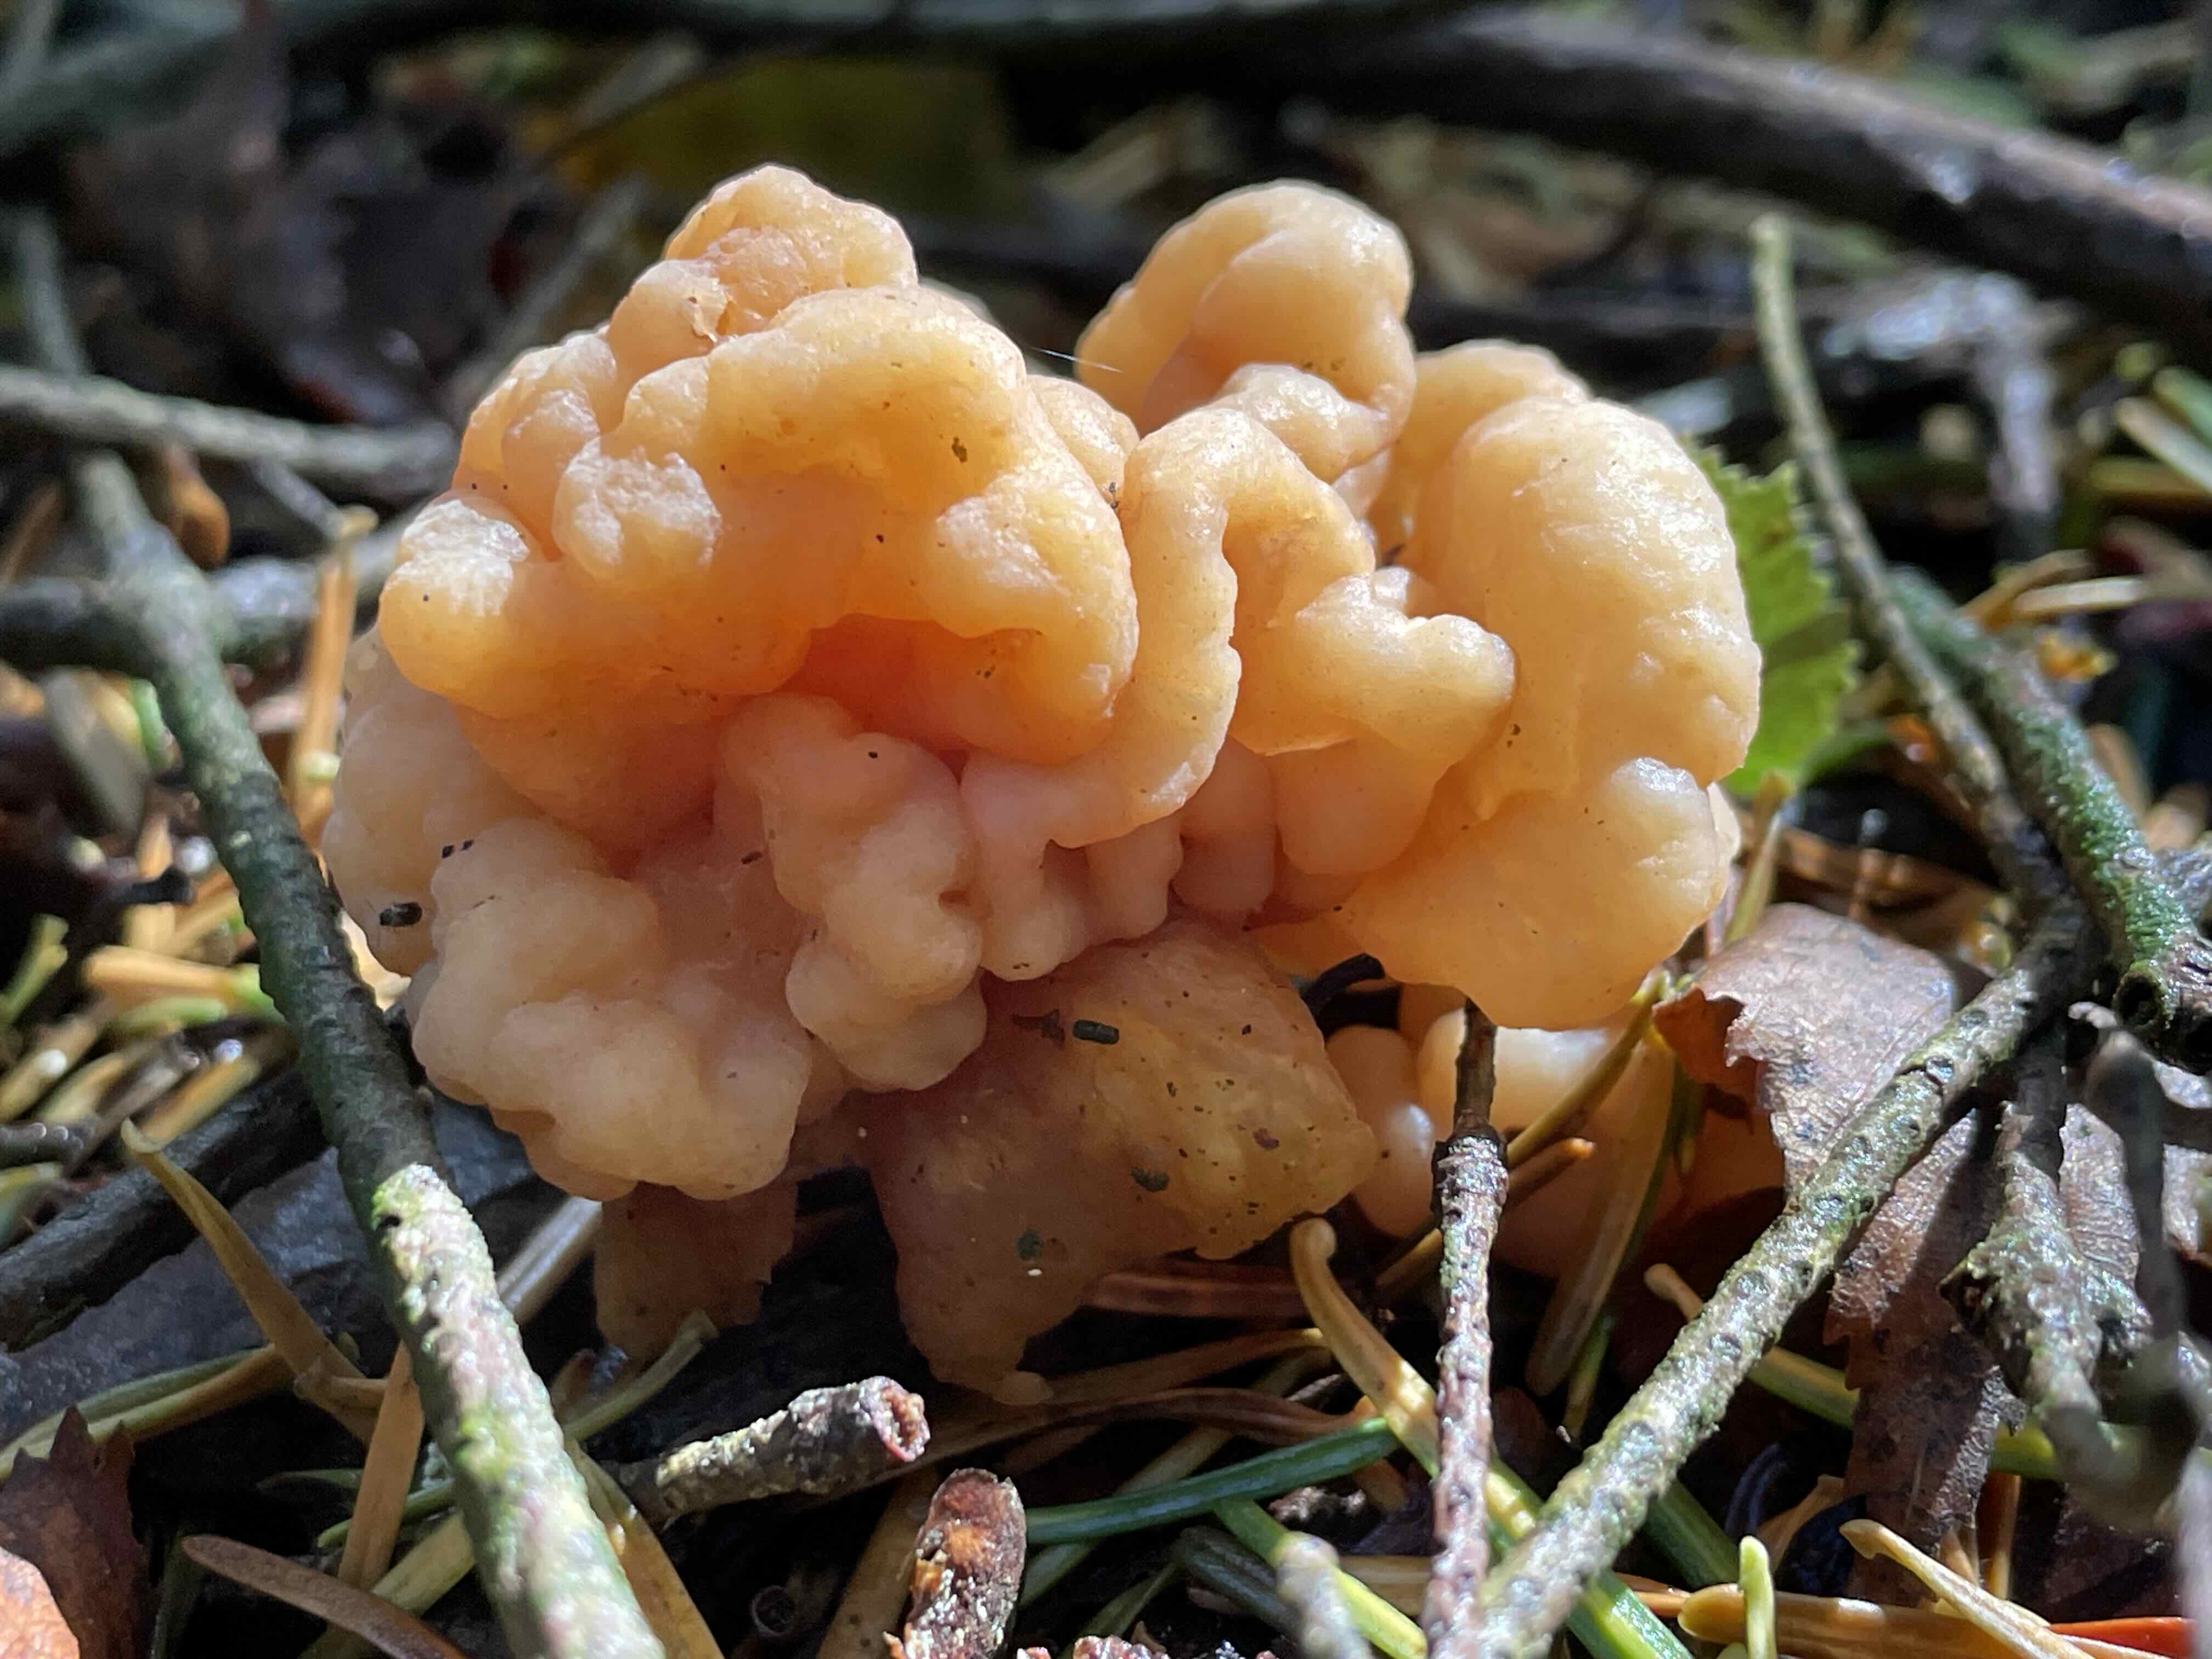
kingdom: Fungi
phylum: Basidiomycota
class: Tremellomycetes
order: Filobasidiales
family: Filobasidiaceae
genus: Syzygospora
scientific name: Syzygospora tumefaciens
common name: fladhatte-snyltehjerne
